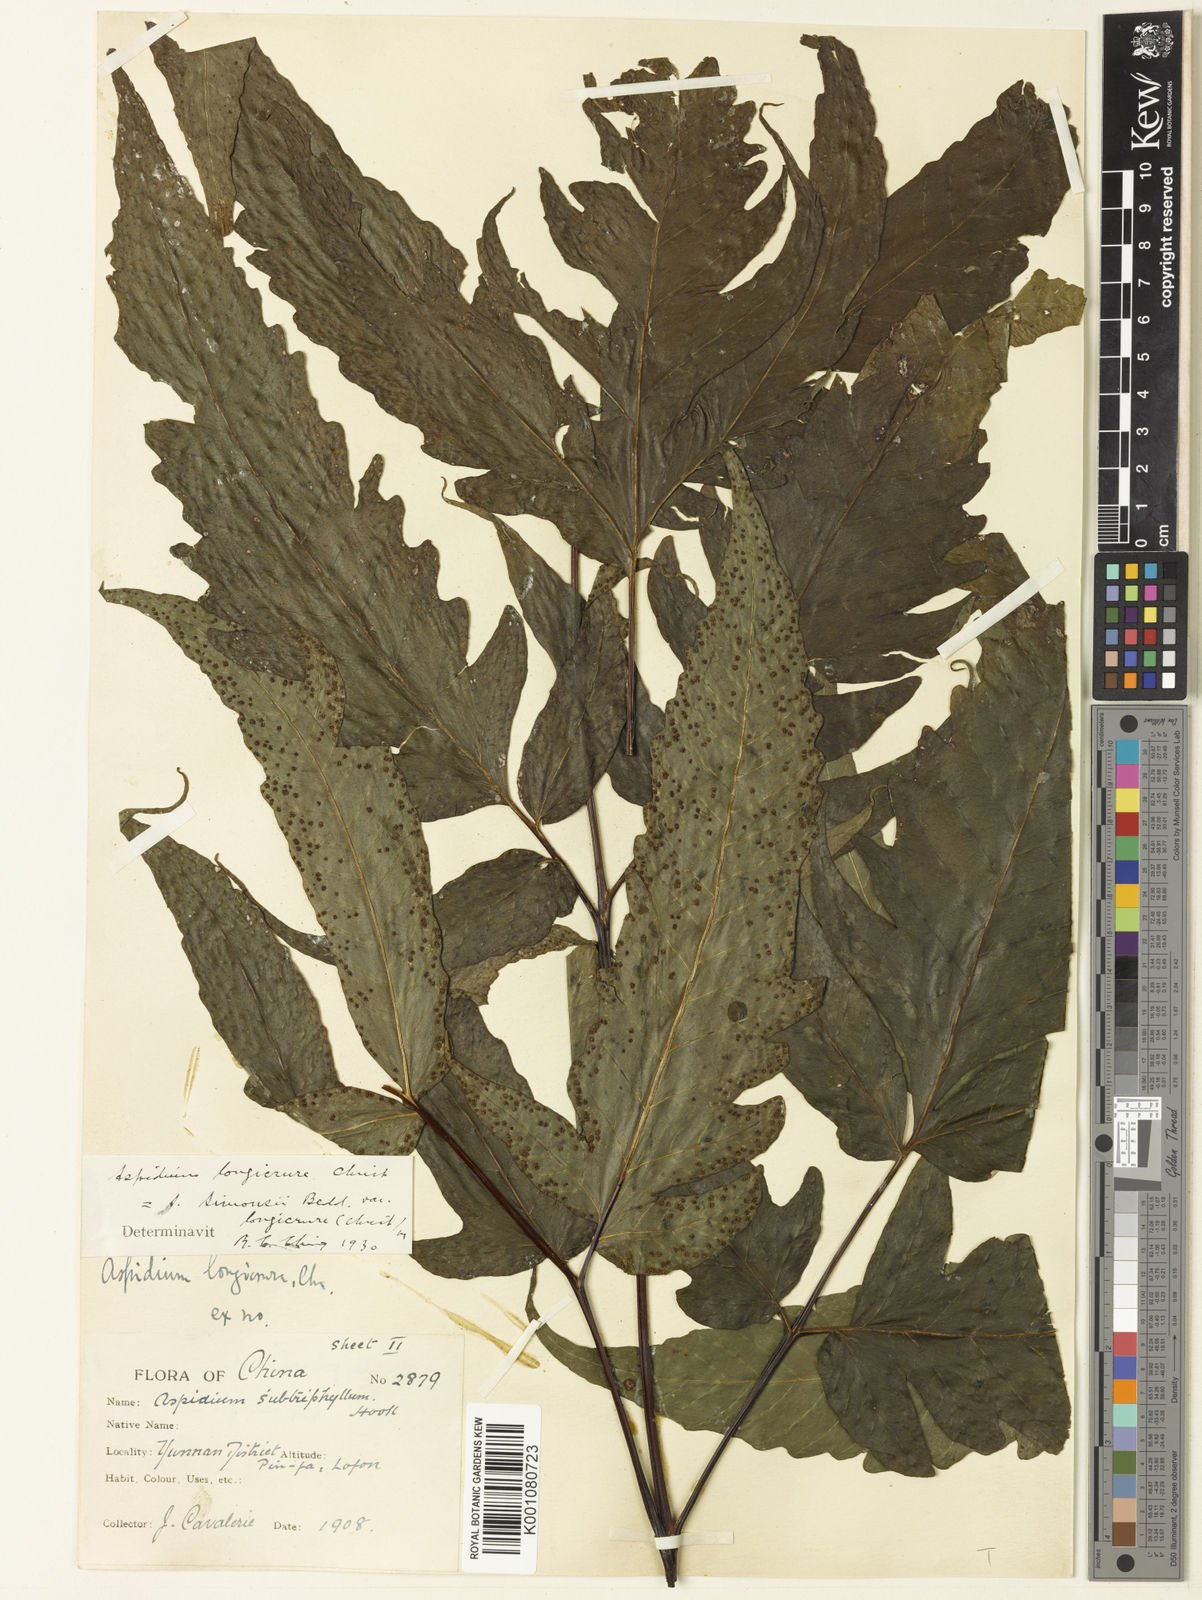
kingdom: Plantae
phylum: Tracheophyta
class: Polypodiopsida
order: Polypodiales
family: Tectariaceae
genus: Tectaria
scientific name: Tectaria simonsii
